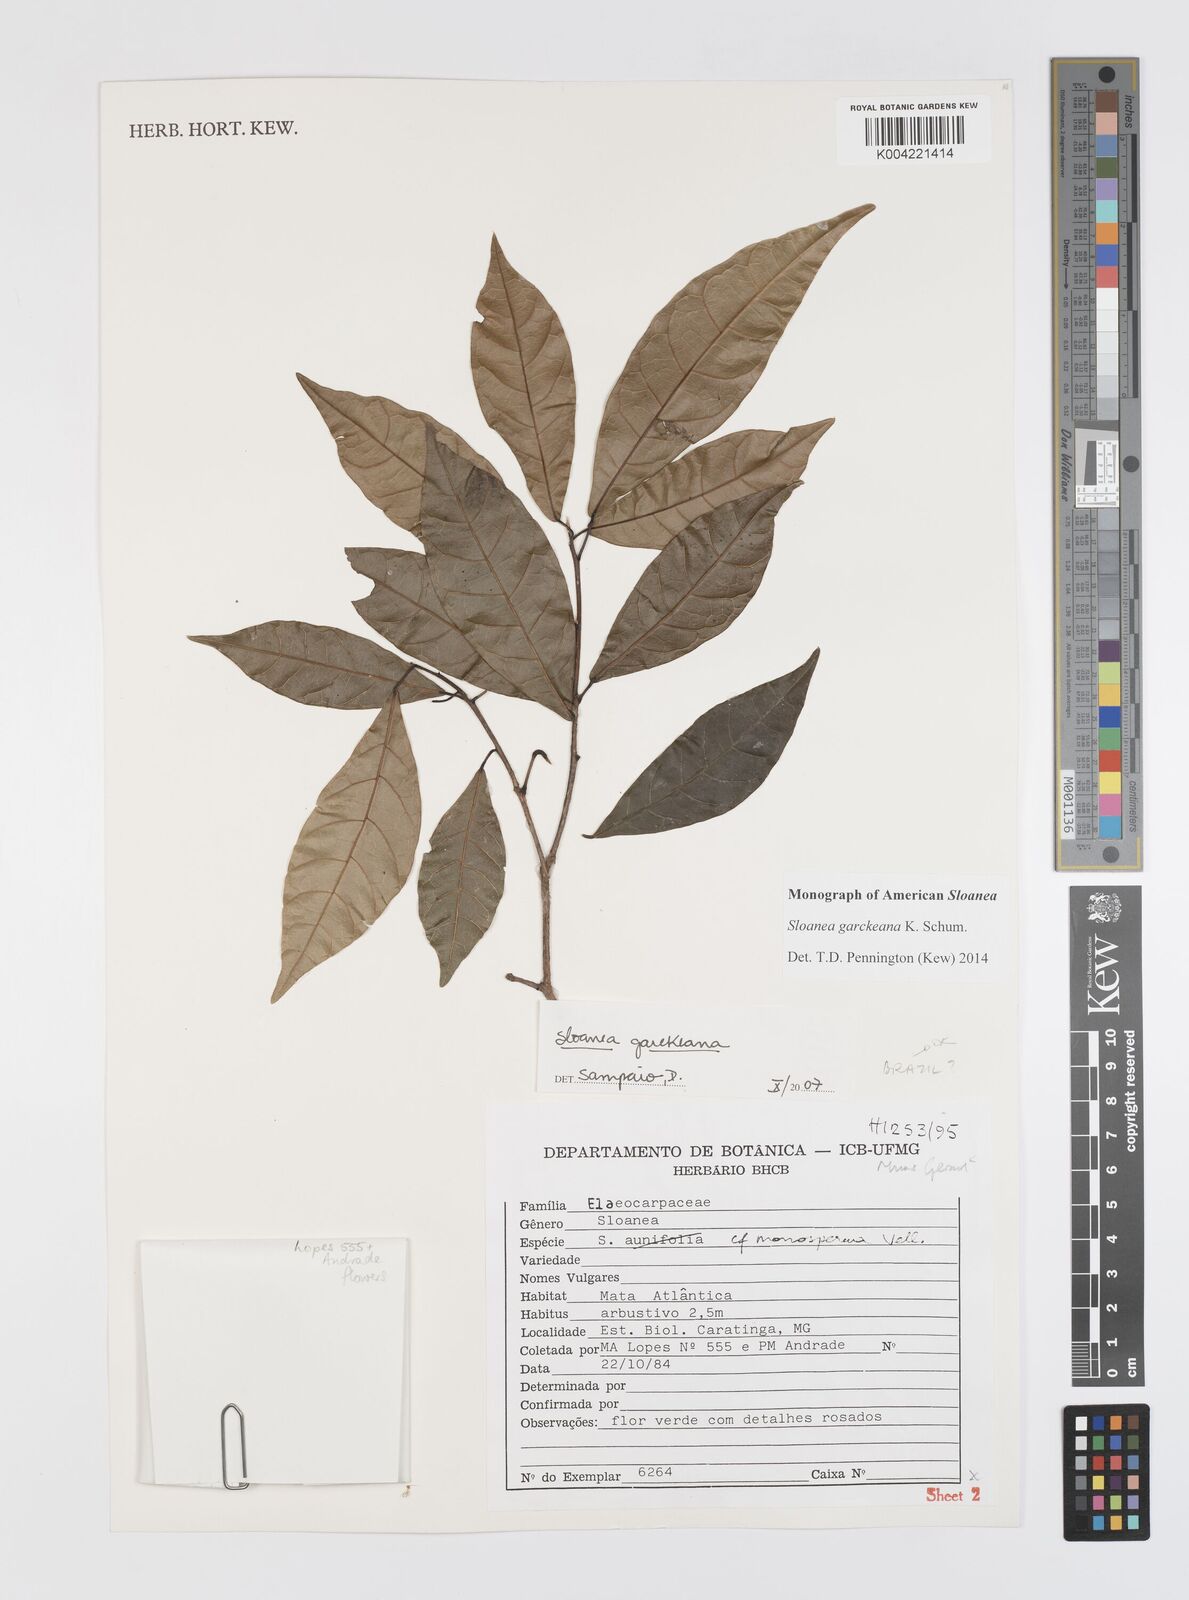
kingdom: Plantae
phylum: Tracheophyta
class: Magnoliopsida
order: Oxalidales
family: Elaeocarpaceae
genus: Sloanea
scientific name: Sloanea garckeana
